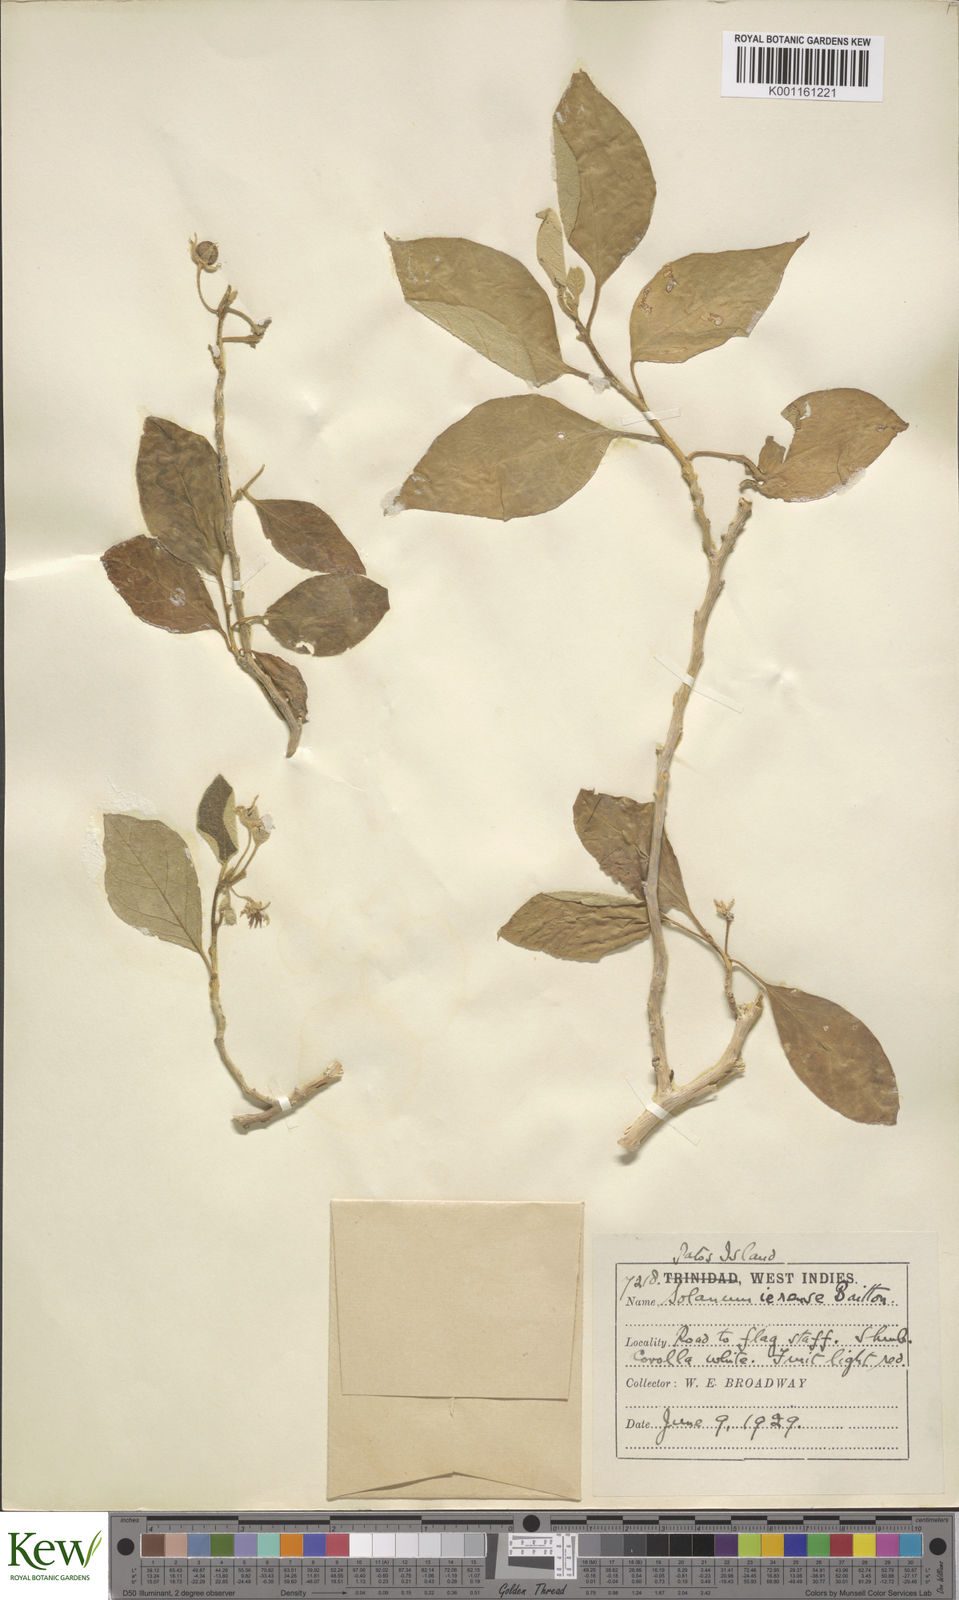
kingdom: Plantae
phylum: Tracheophyta
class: Magnoliopsida
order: Solanales
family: Solanaceae
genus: Solanum
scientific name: Solanum gardneri
